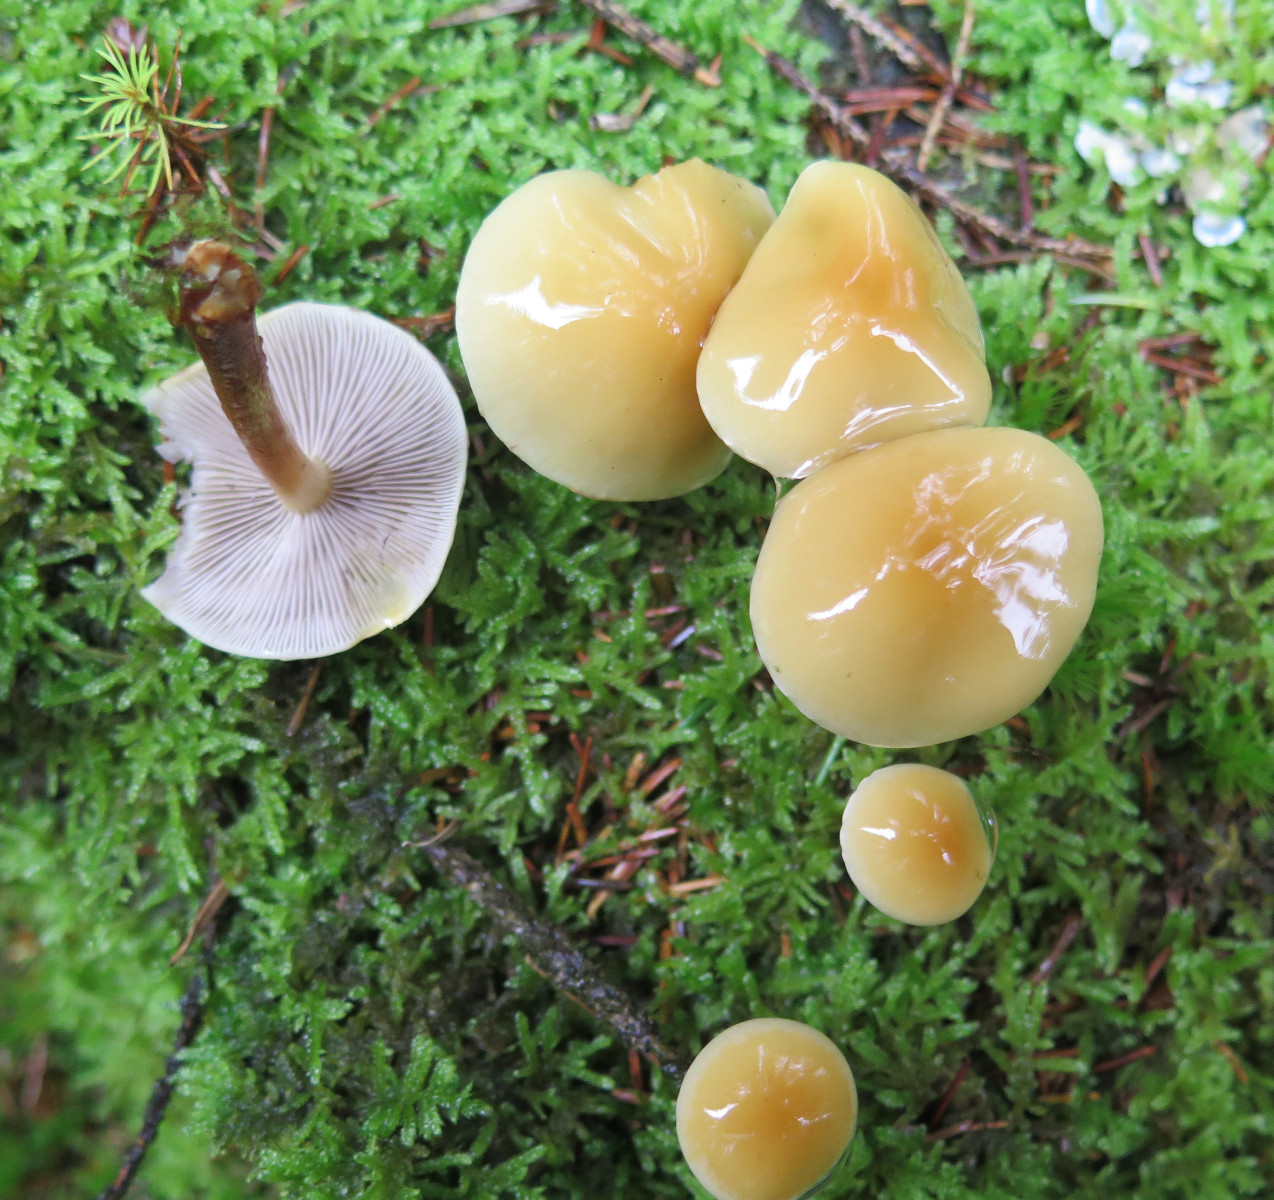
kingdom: Fungi
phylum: Basidiomycota
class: Agaricomycetes
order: Agaricales
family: Strophariaceae
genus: Hypholoma
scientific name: Hypholoma capnoides
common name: gran-svovlhat
